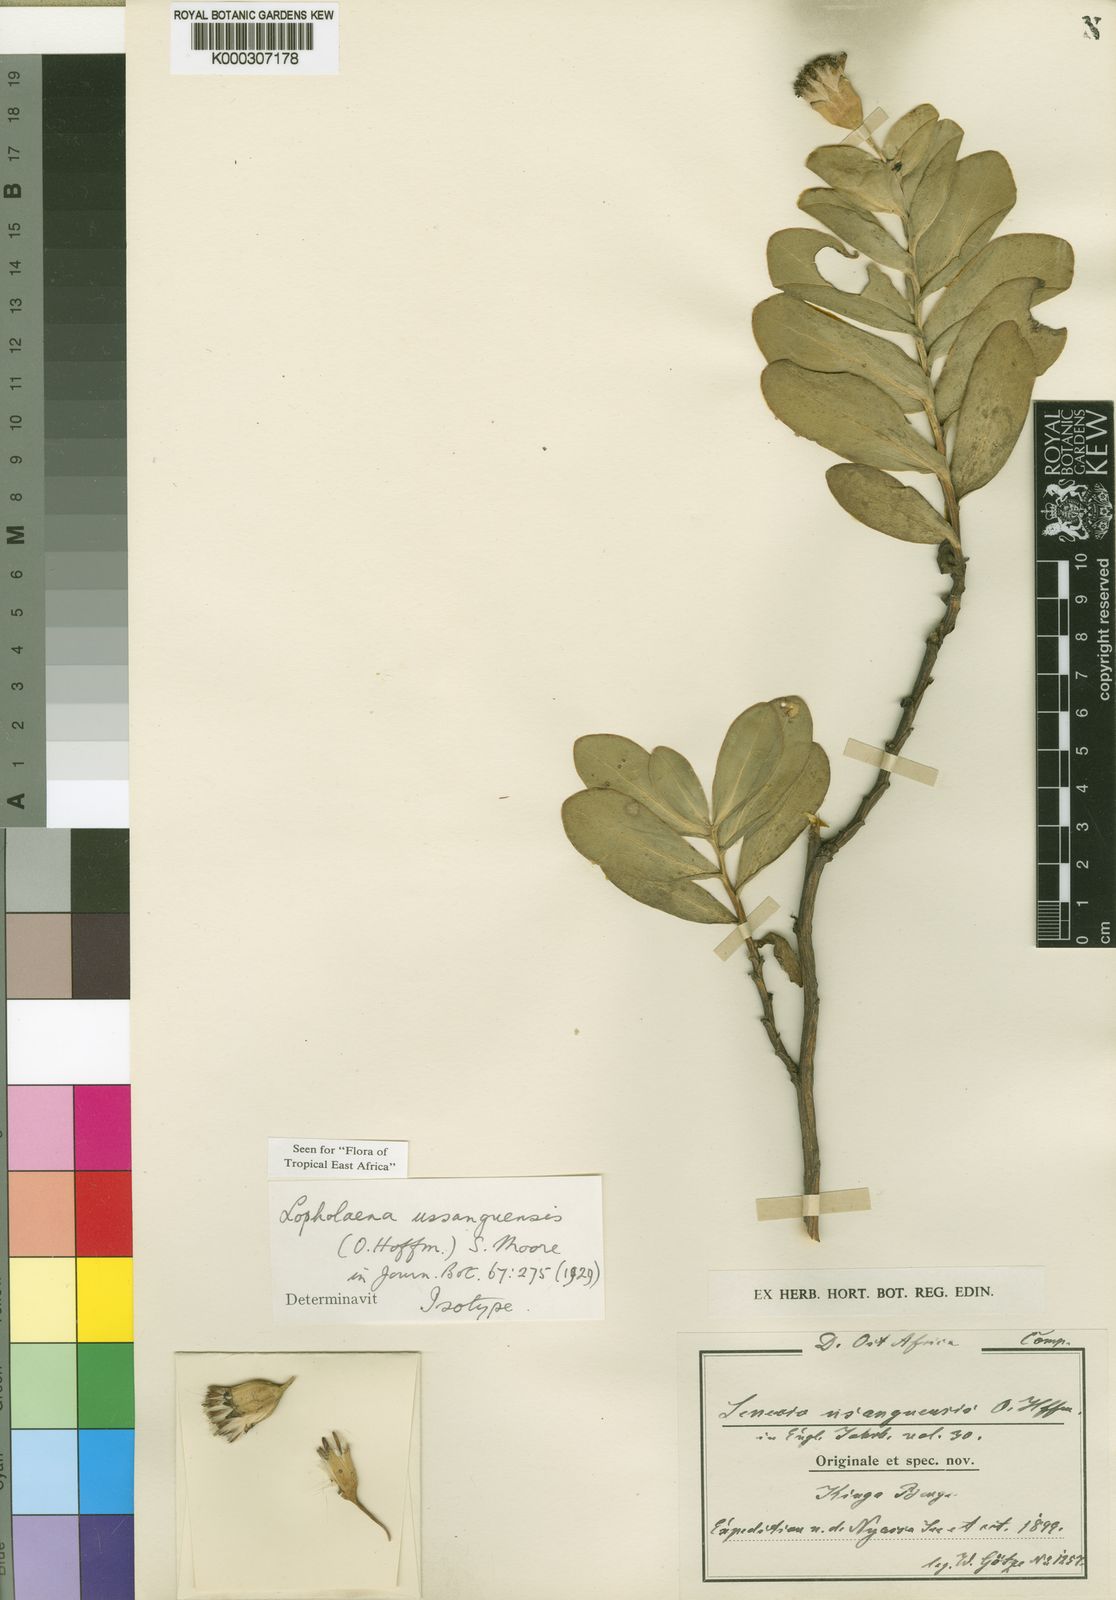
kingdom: Plantae
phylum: Tracheophyta
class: Magnoliopsida
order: Asterales
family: Asteraceae
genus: Lopholaena
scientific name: Lopholaena ussanguensis
